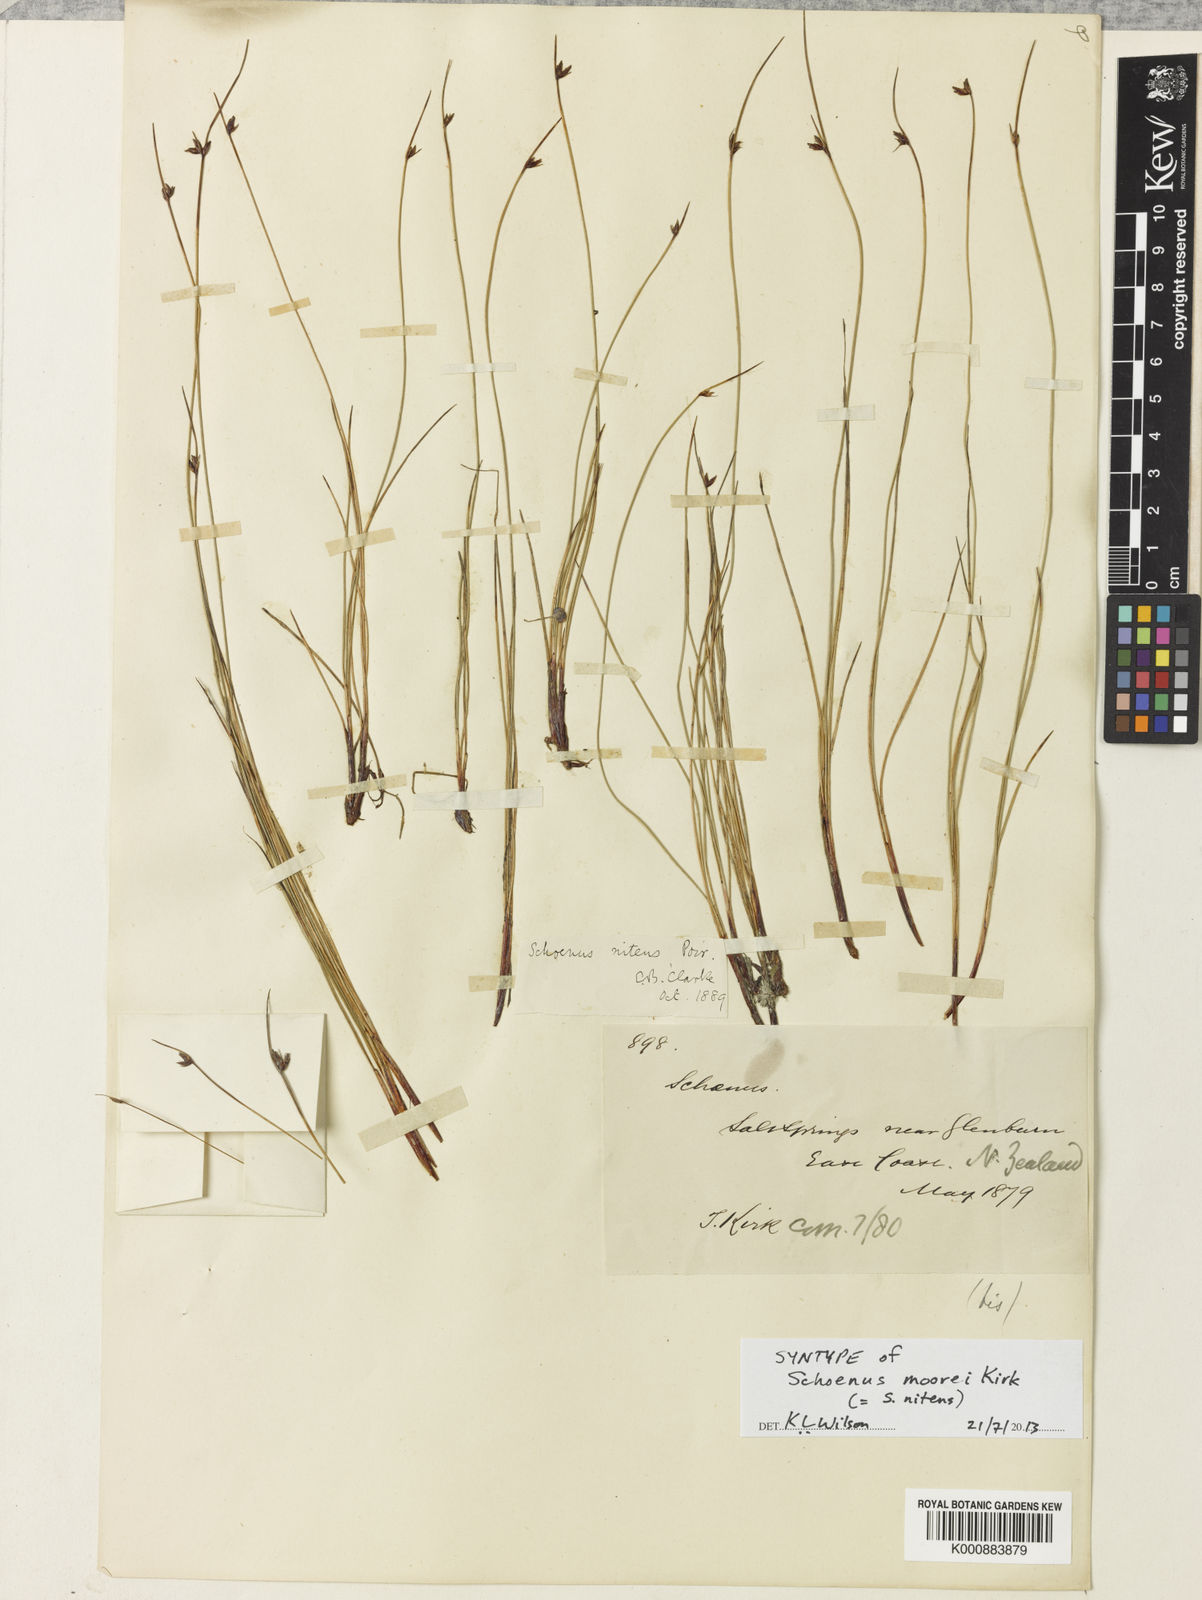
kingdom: Plantae
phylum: Tracheophyta
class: Liliopsida
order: Poales
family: Cyperaceae
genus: Schoenus
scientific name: Schoenus
